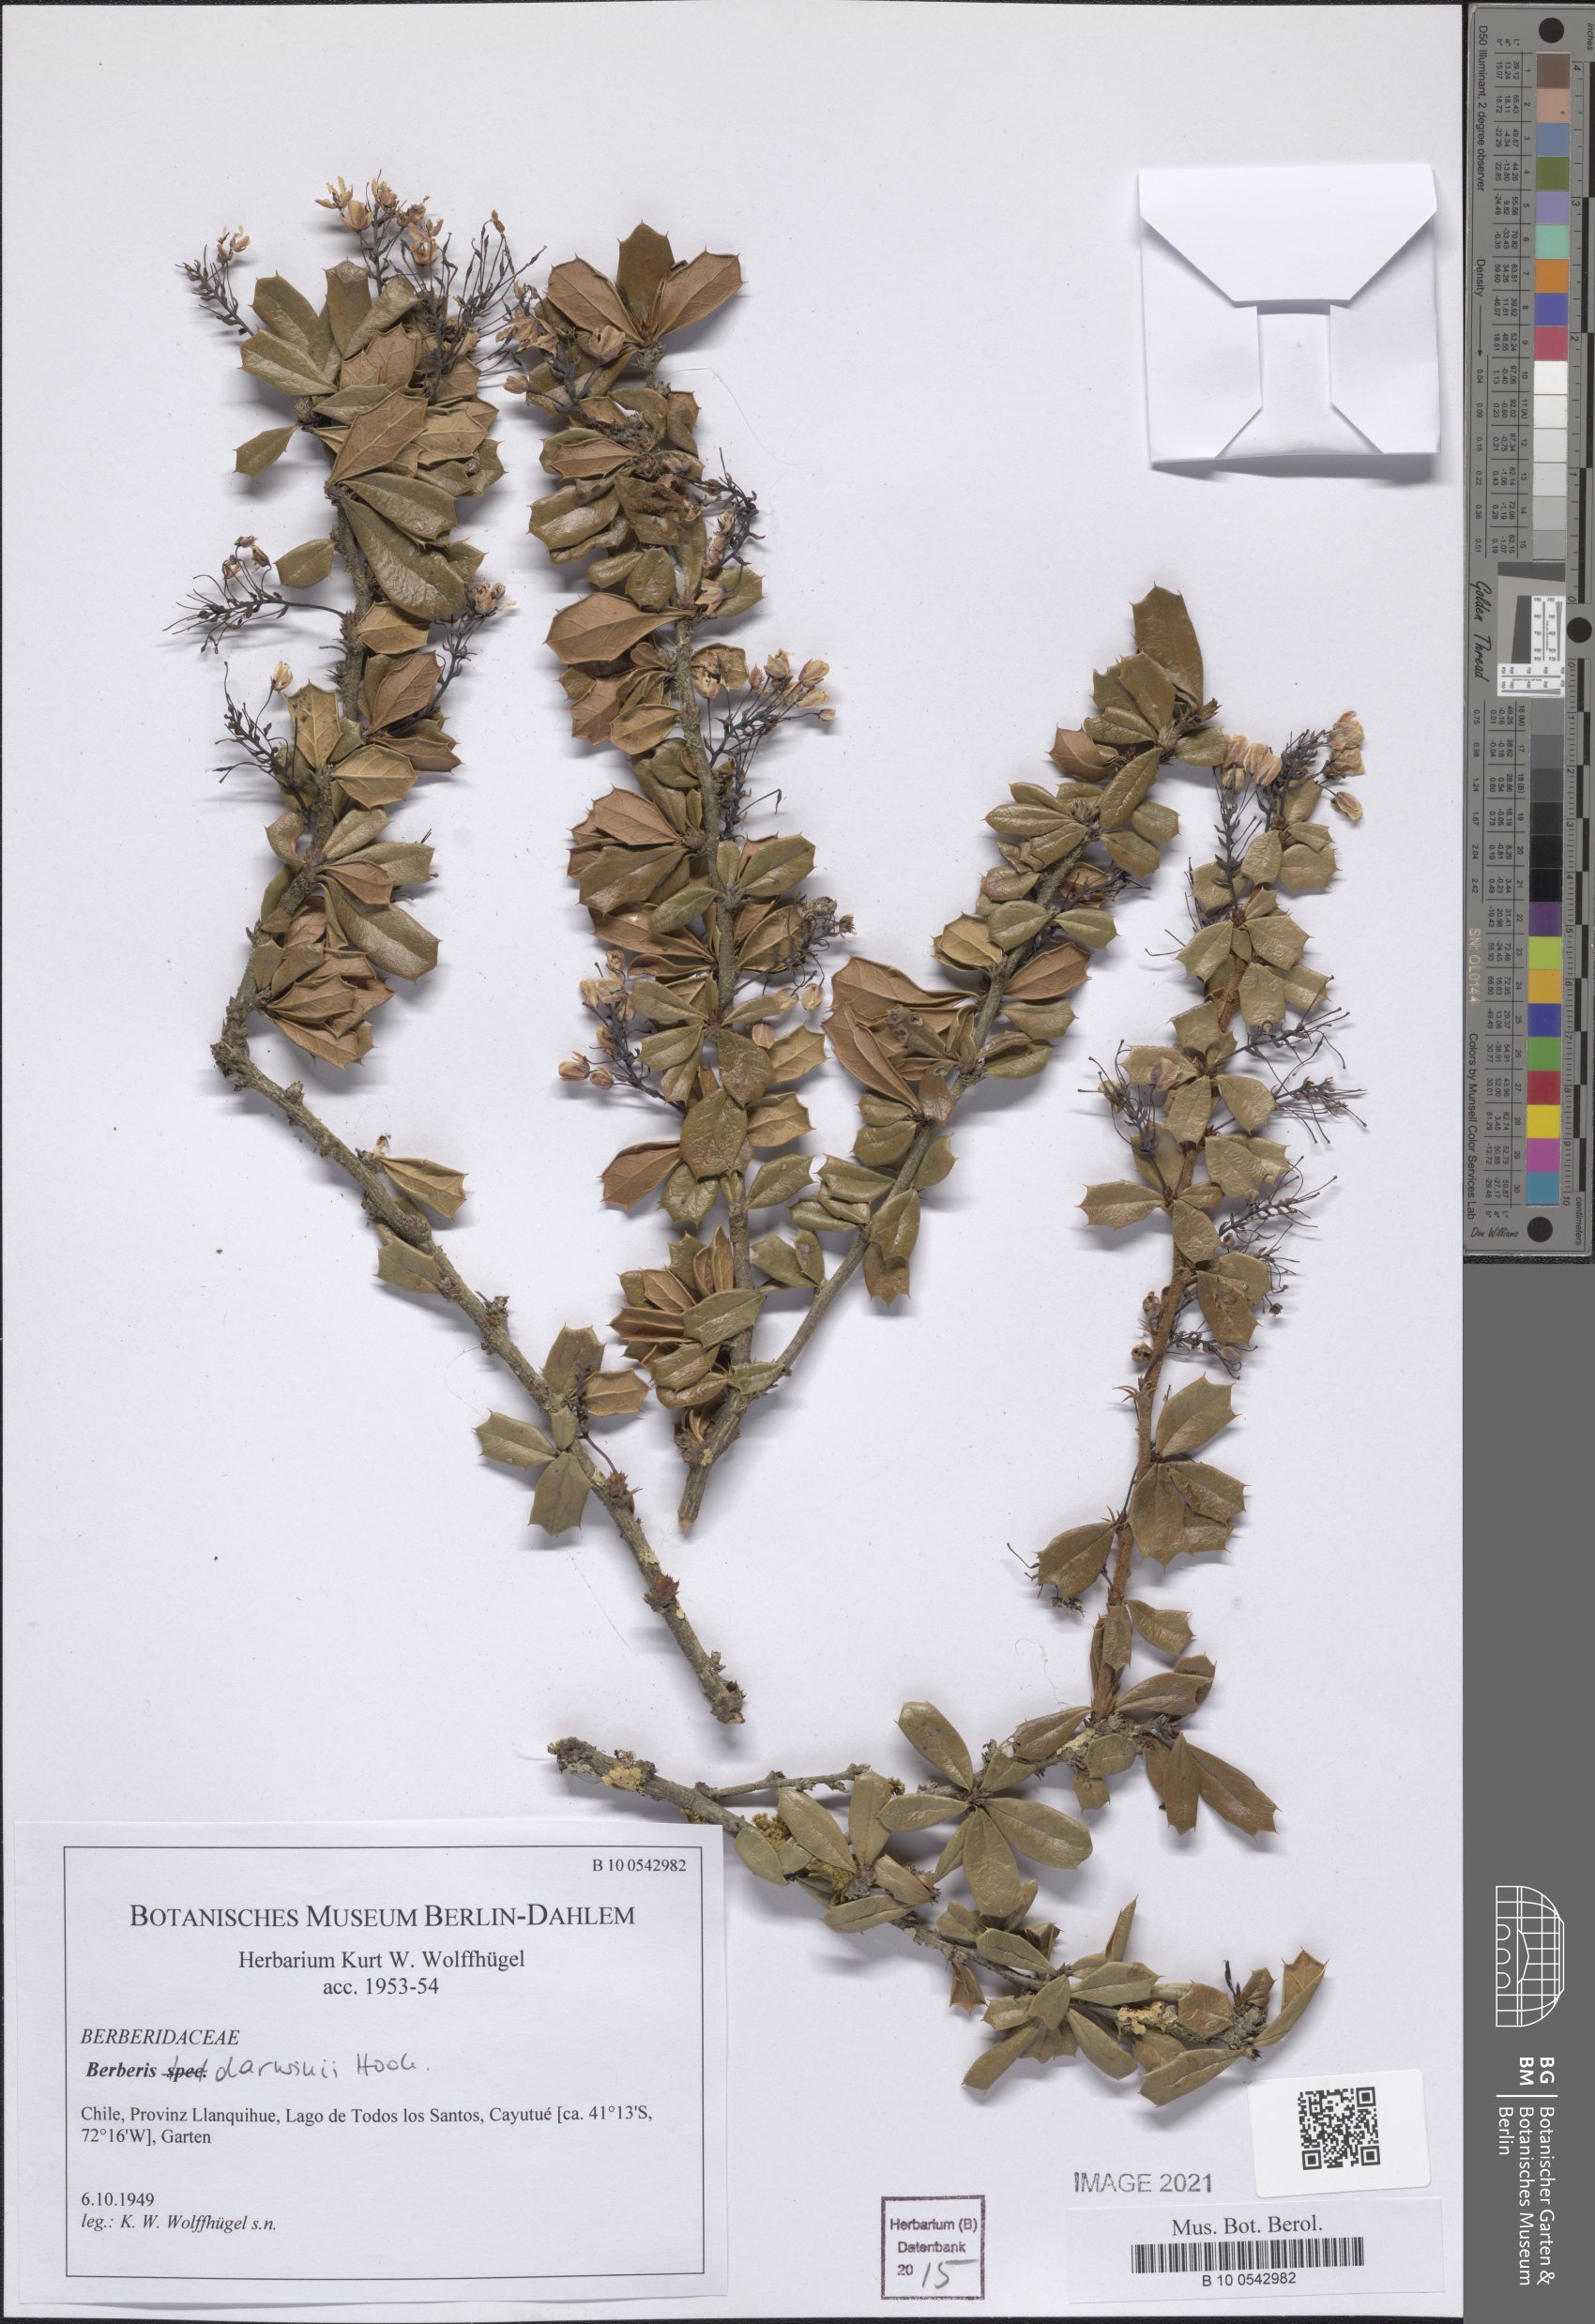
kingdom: Plantae
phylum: Tracheophyta
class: Magnoliopsida
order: Ranunculales
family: Berberidaceae
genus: Berberis
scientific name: Berberis darwinii
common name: Darwin's barberry
